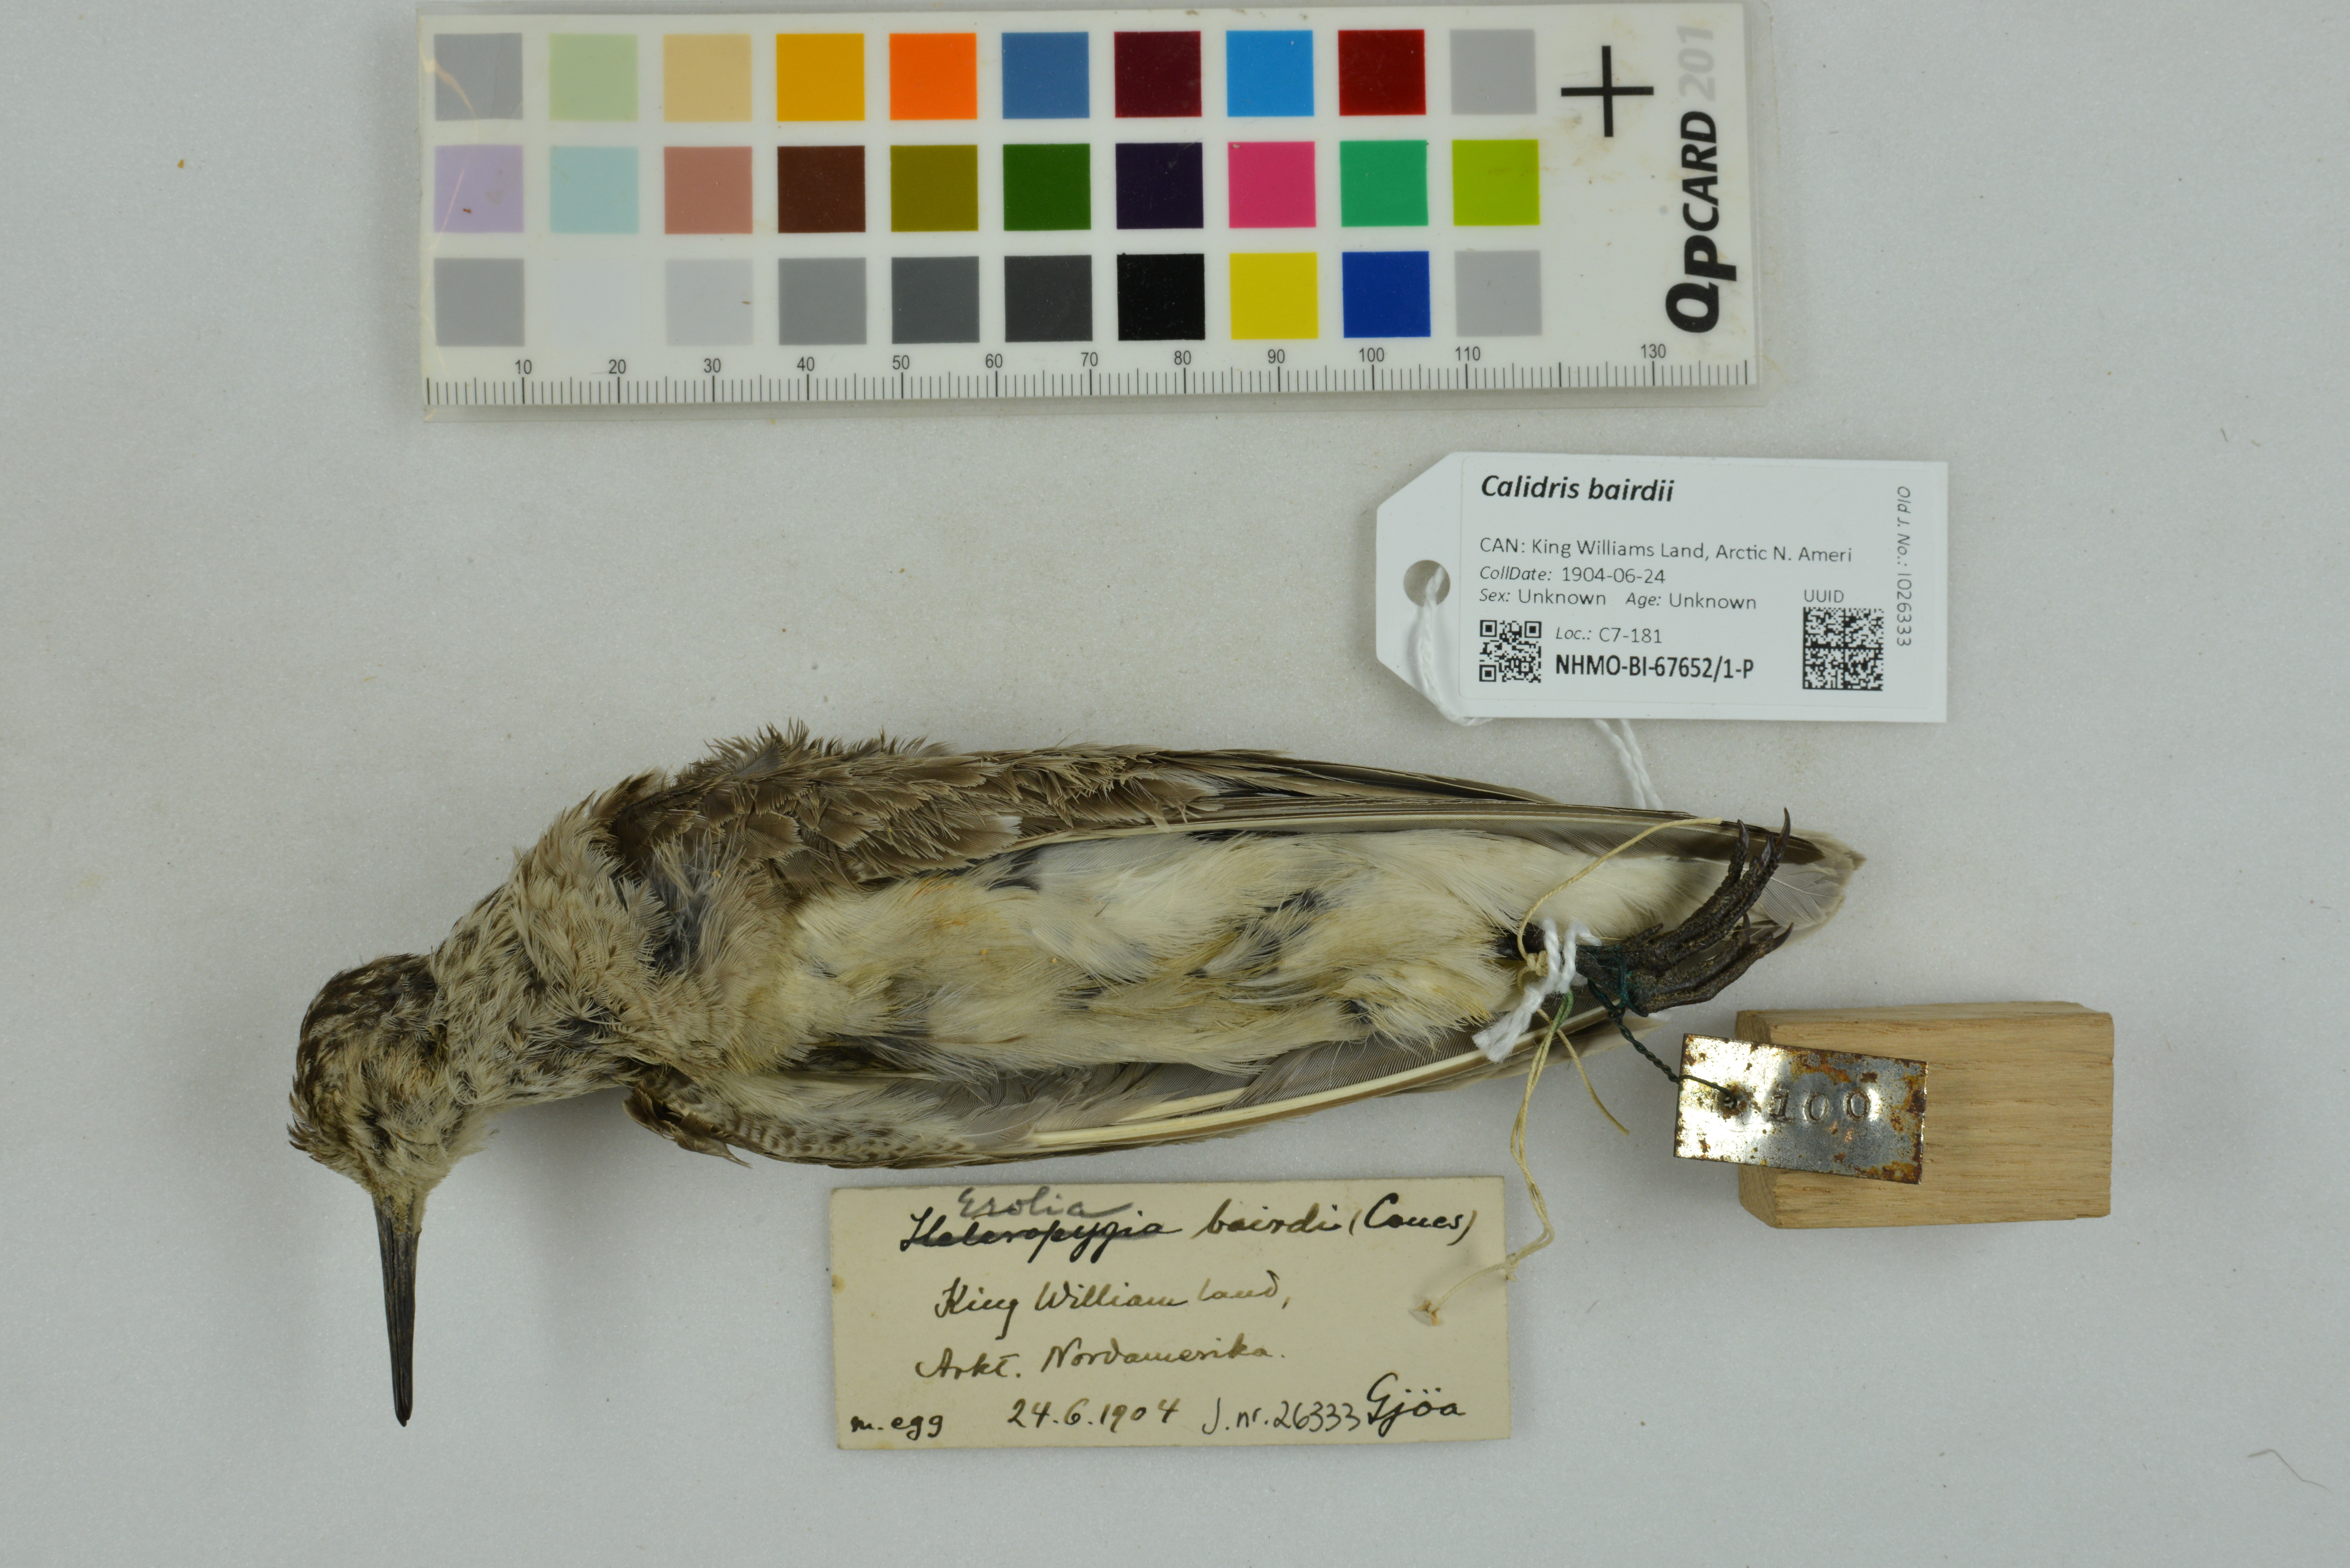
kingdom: Animalia
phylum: Chordata
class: Aves
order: Charadriiformes
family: Scolopacidae
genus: Calidris
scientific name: Calidris bairdii
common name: Baird's sandpiper
